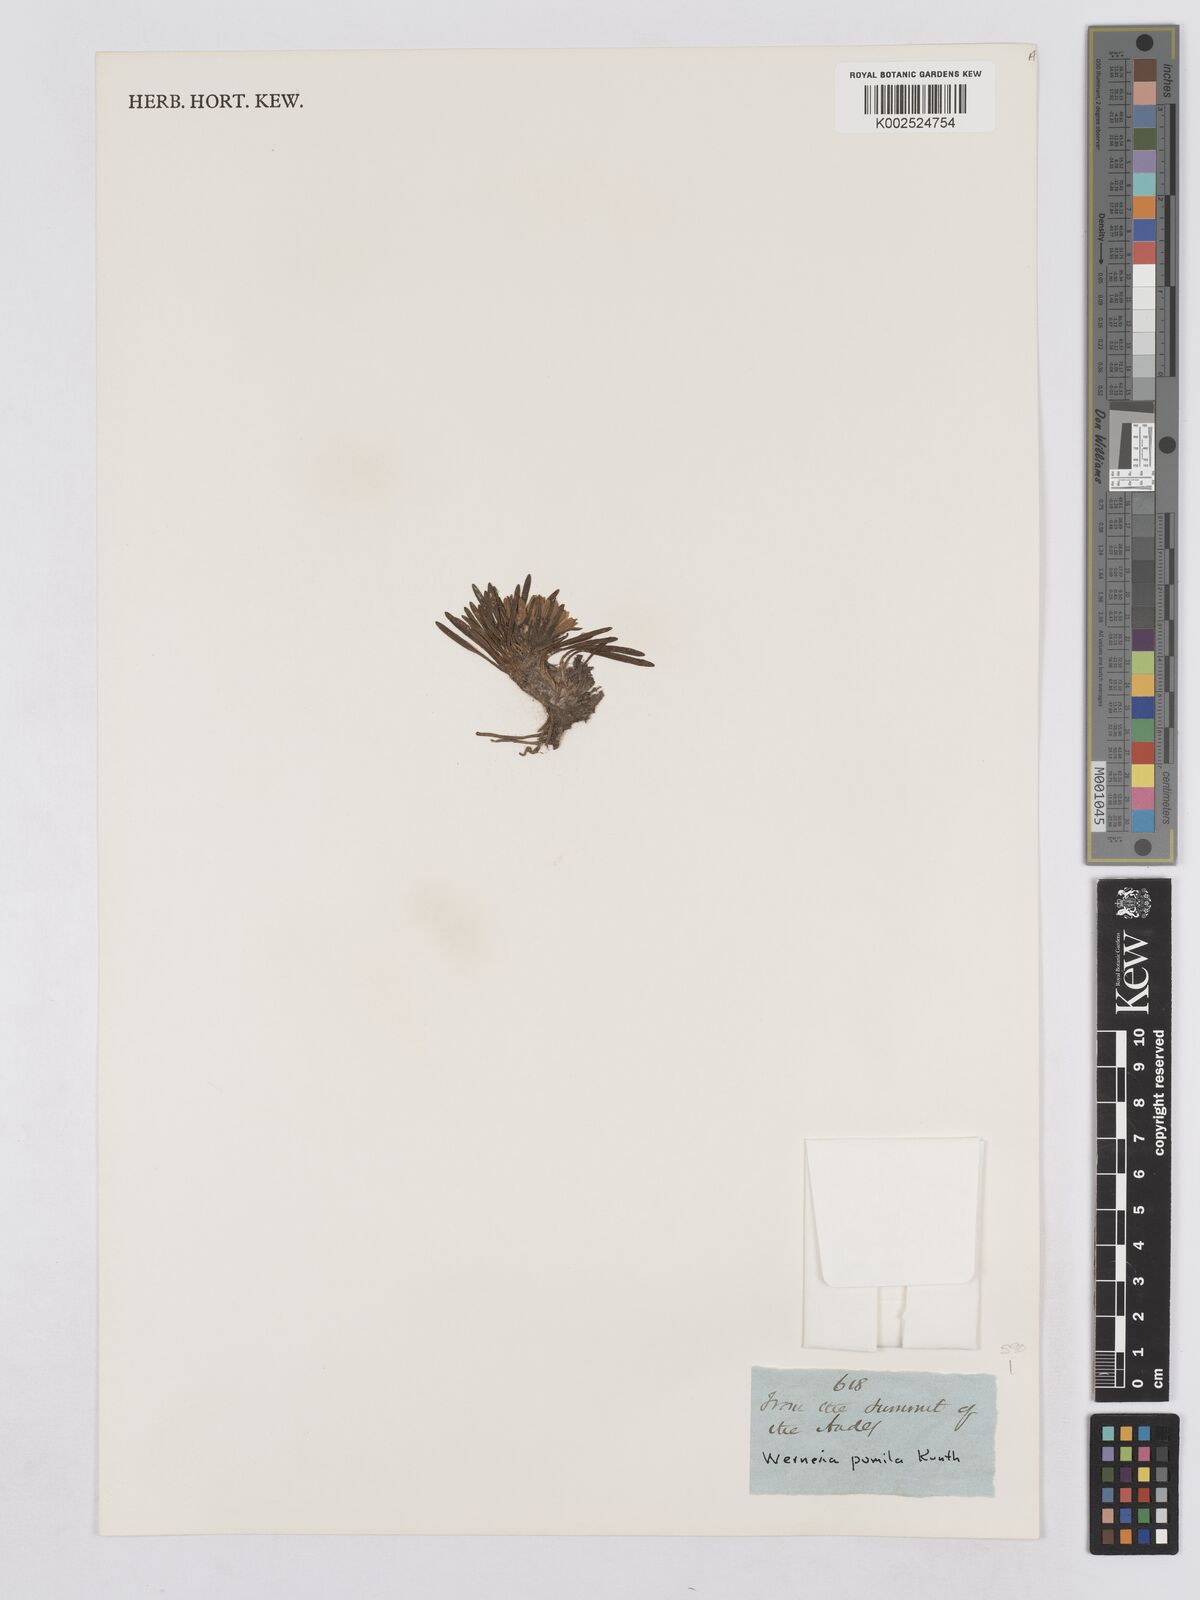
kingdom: Plantae
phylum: Tracheophyta
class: Magnoliopsida
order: Asterales
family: Asteraceae
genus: Rockhausenia
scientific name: Rockhausenia pumila
